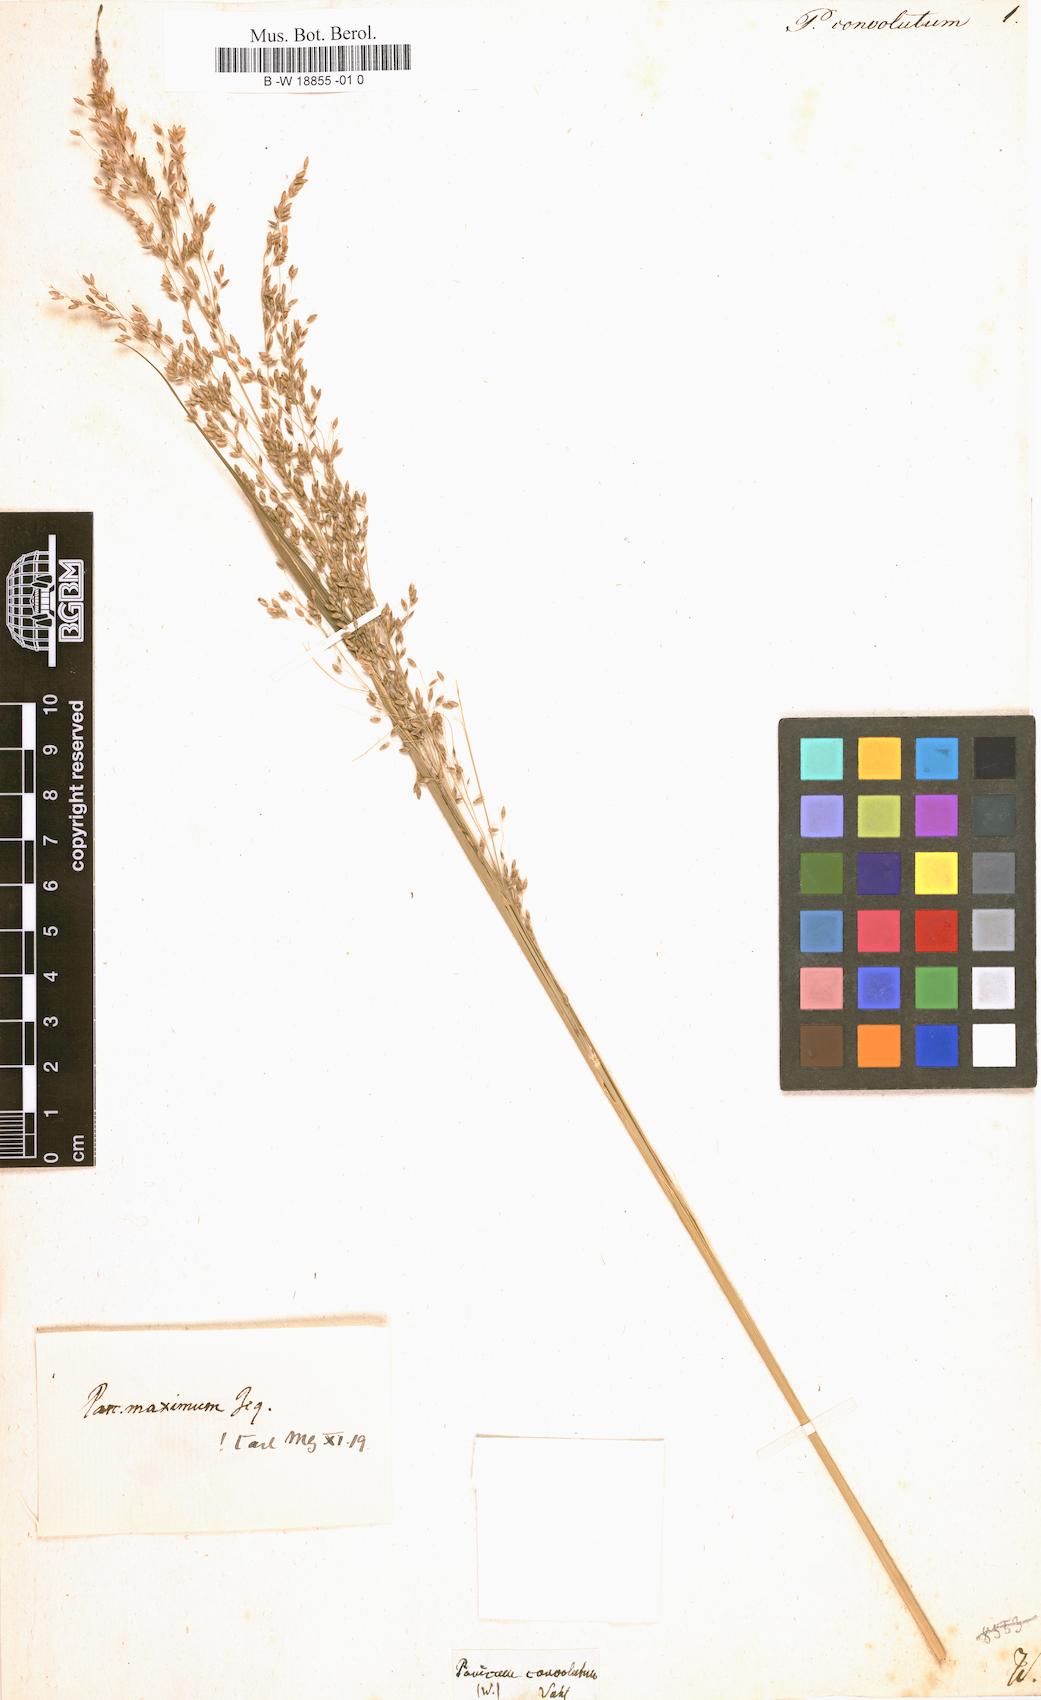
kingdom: Plantae
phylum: Tracheophyta
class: Liliopsida
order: Poales
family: Poaceae
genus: Panicum
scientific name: Panicum repens
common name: Torpedo grass
